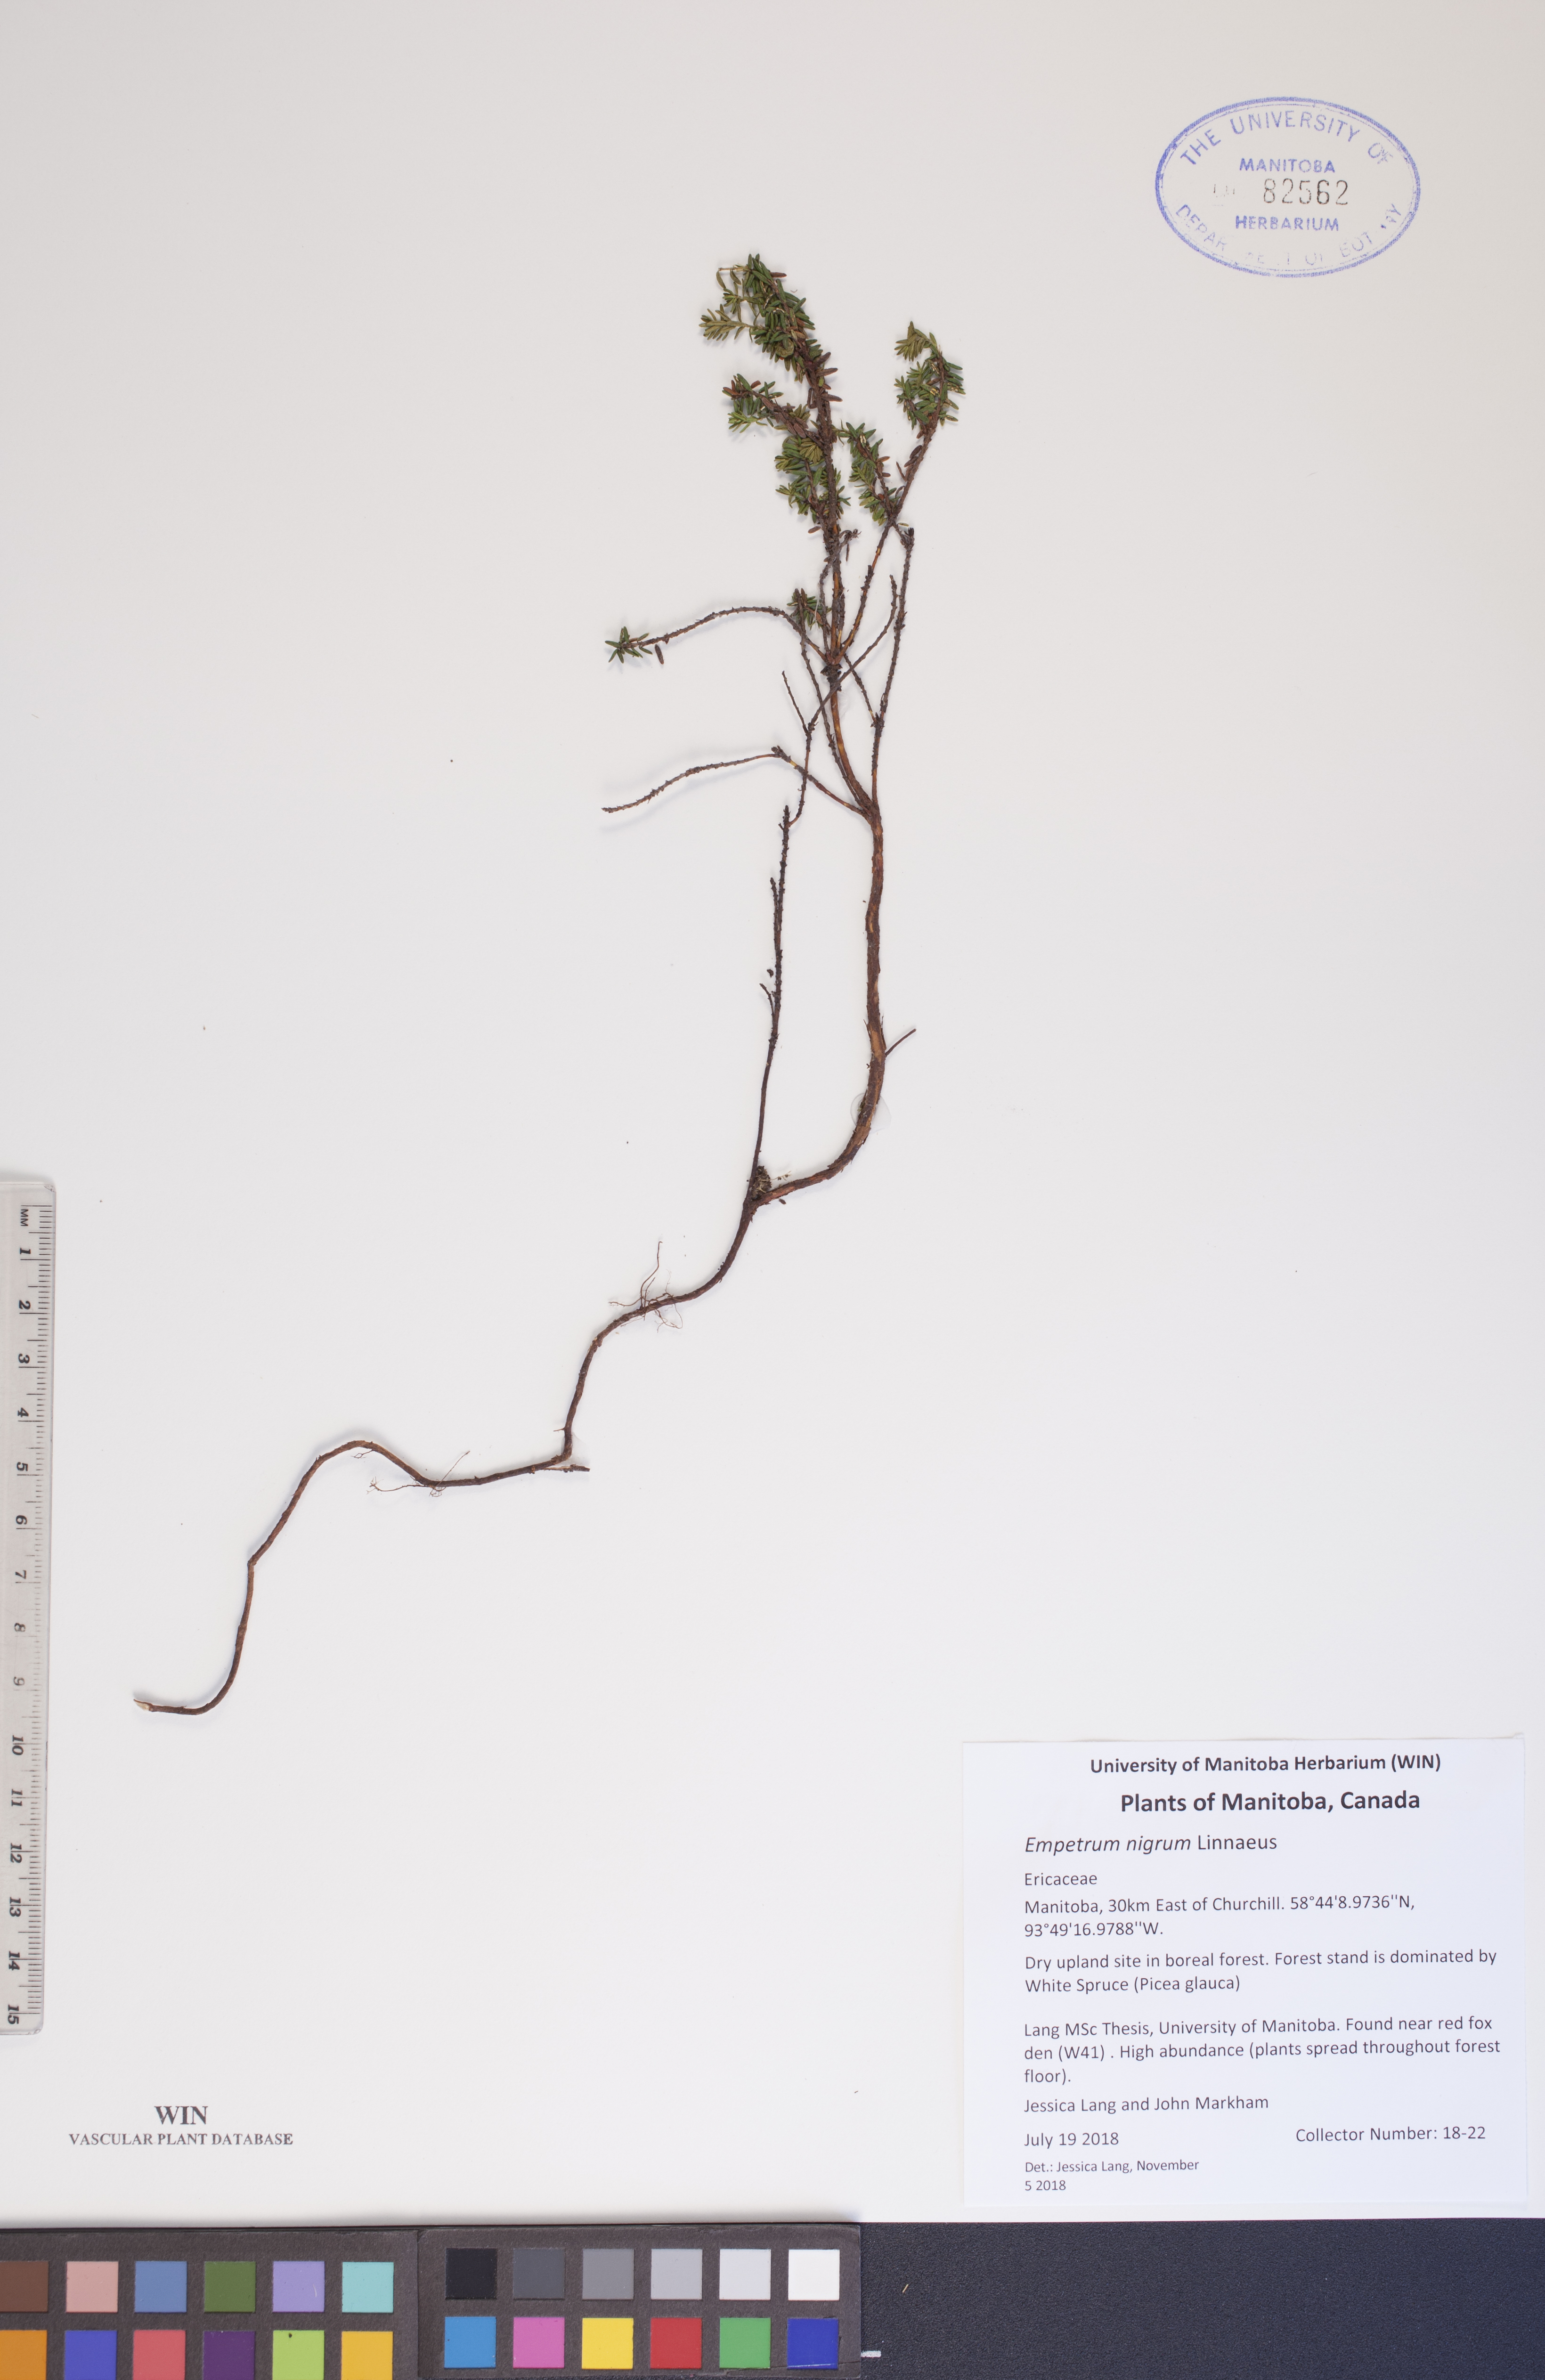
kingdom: Plantae
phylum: Tracheophyta
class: Magnoliopsida
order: Ericales
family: Ericaceae
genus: Empetrum
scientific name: Empetrum nigrum
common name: Black crowberry
